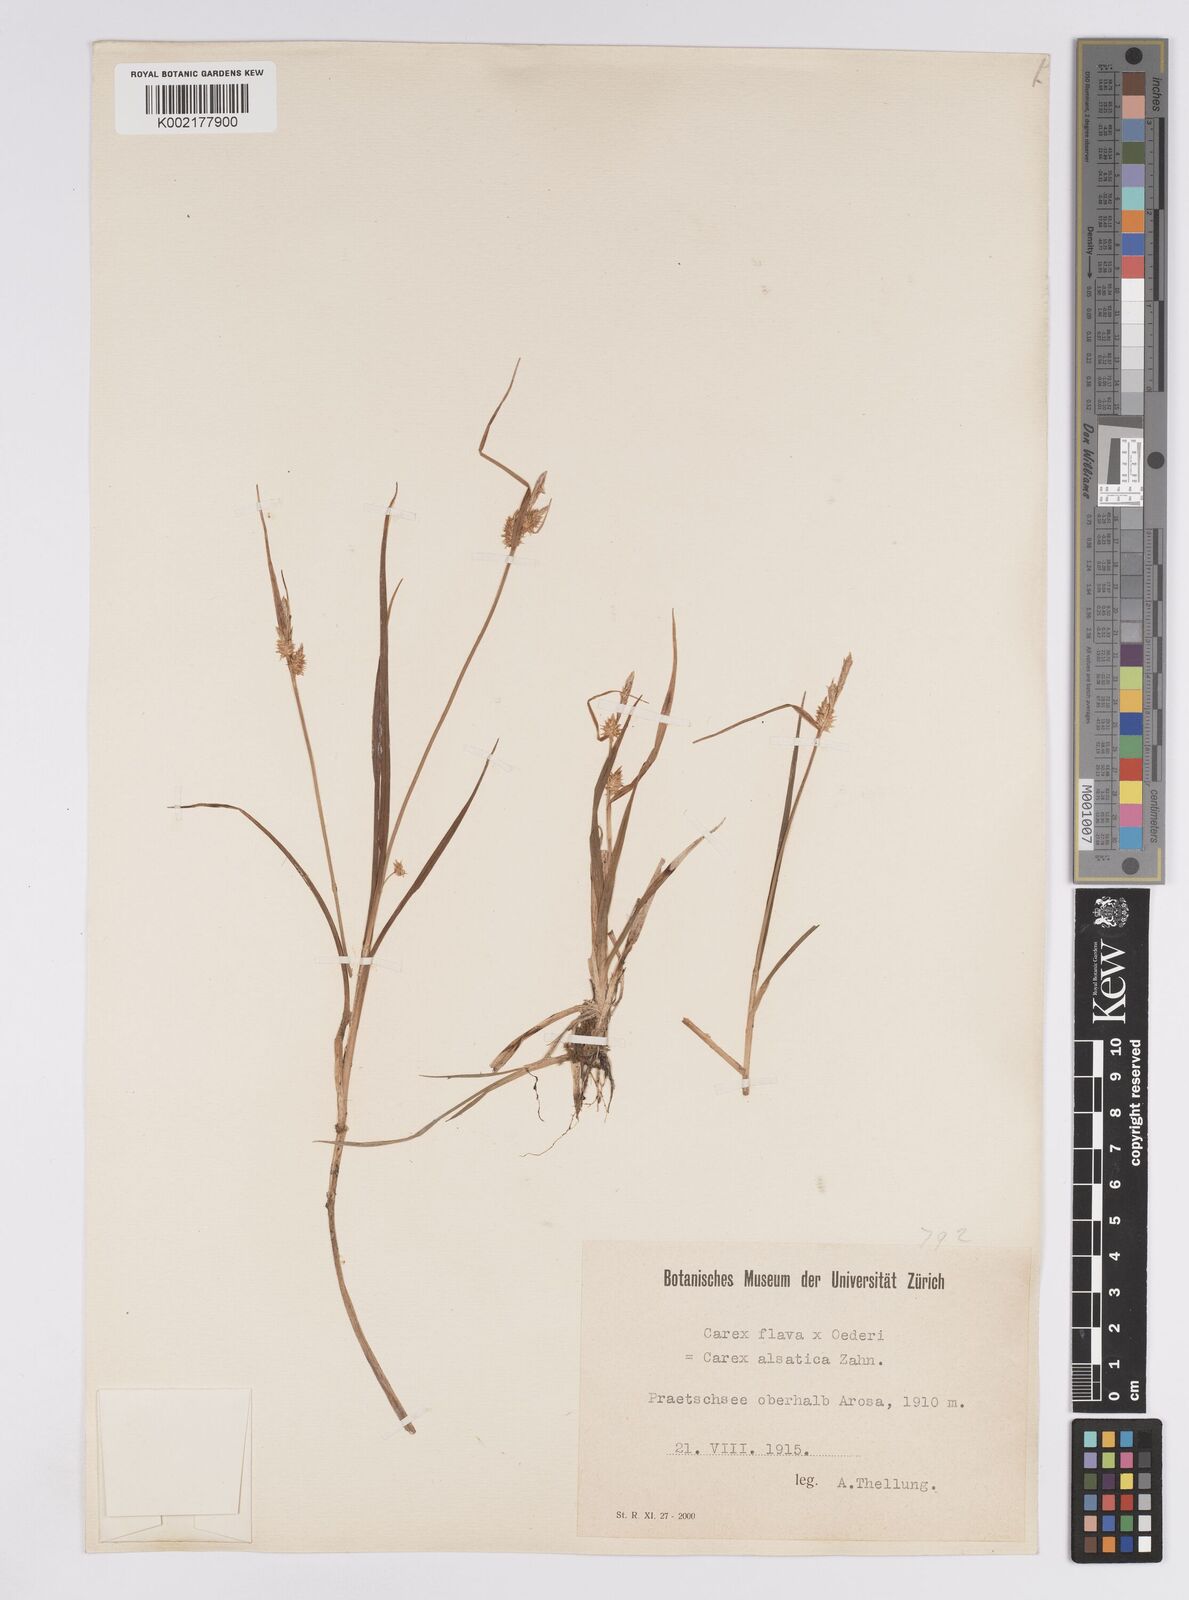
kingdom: Plantae
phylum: Tracheophyta
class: Liliopsida
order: Poales
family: Cyperaceae
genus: Carex
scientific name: Carex flava
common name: Large yellow-sedge
